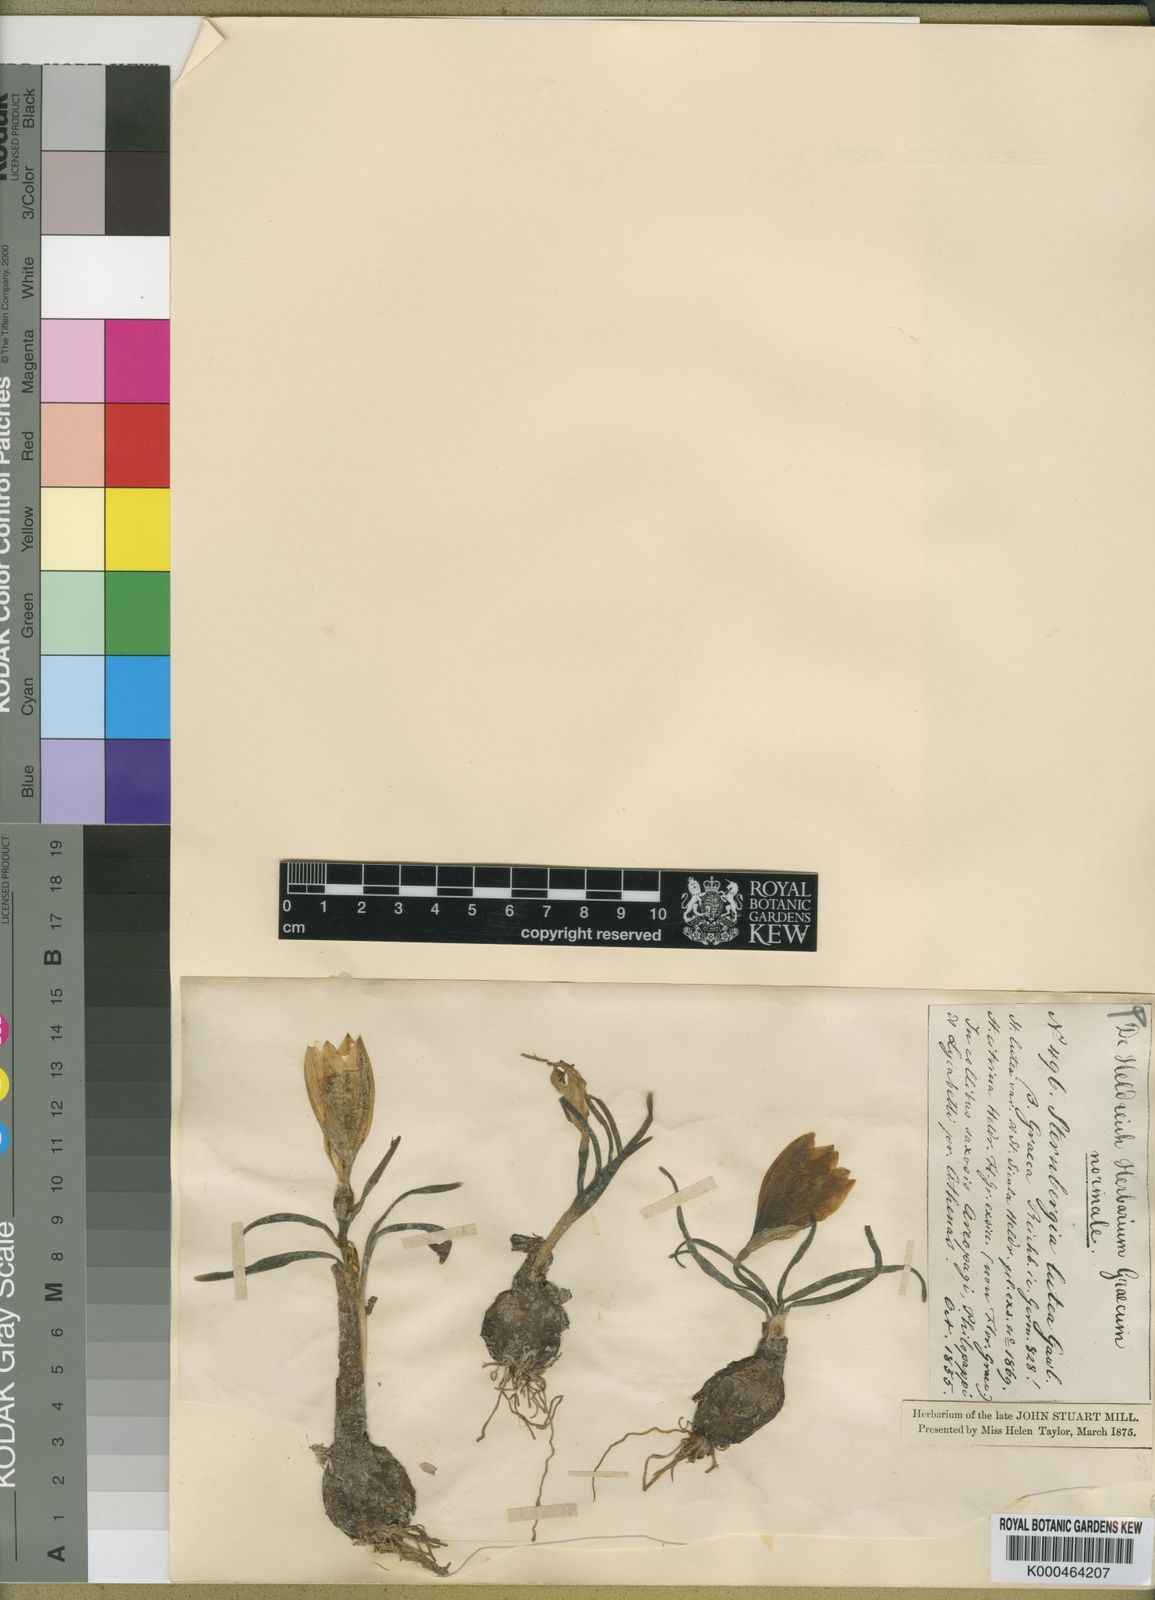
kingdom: Plantae
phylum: Tracheophyta
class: Liliopsida
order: Asparagales
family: Amaryllidaceae
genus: Sternbergia
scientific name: Sternbergia
